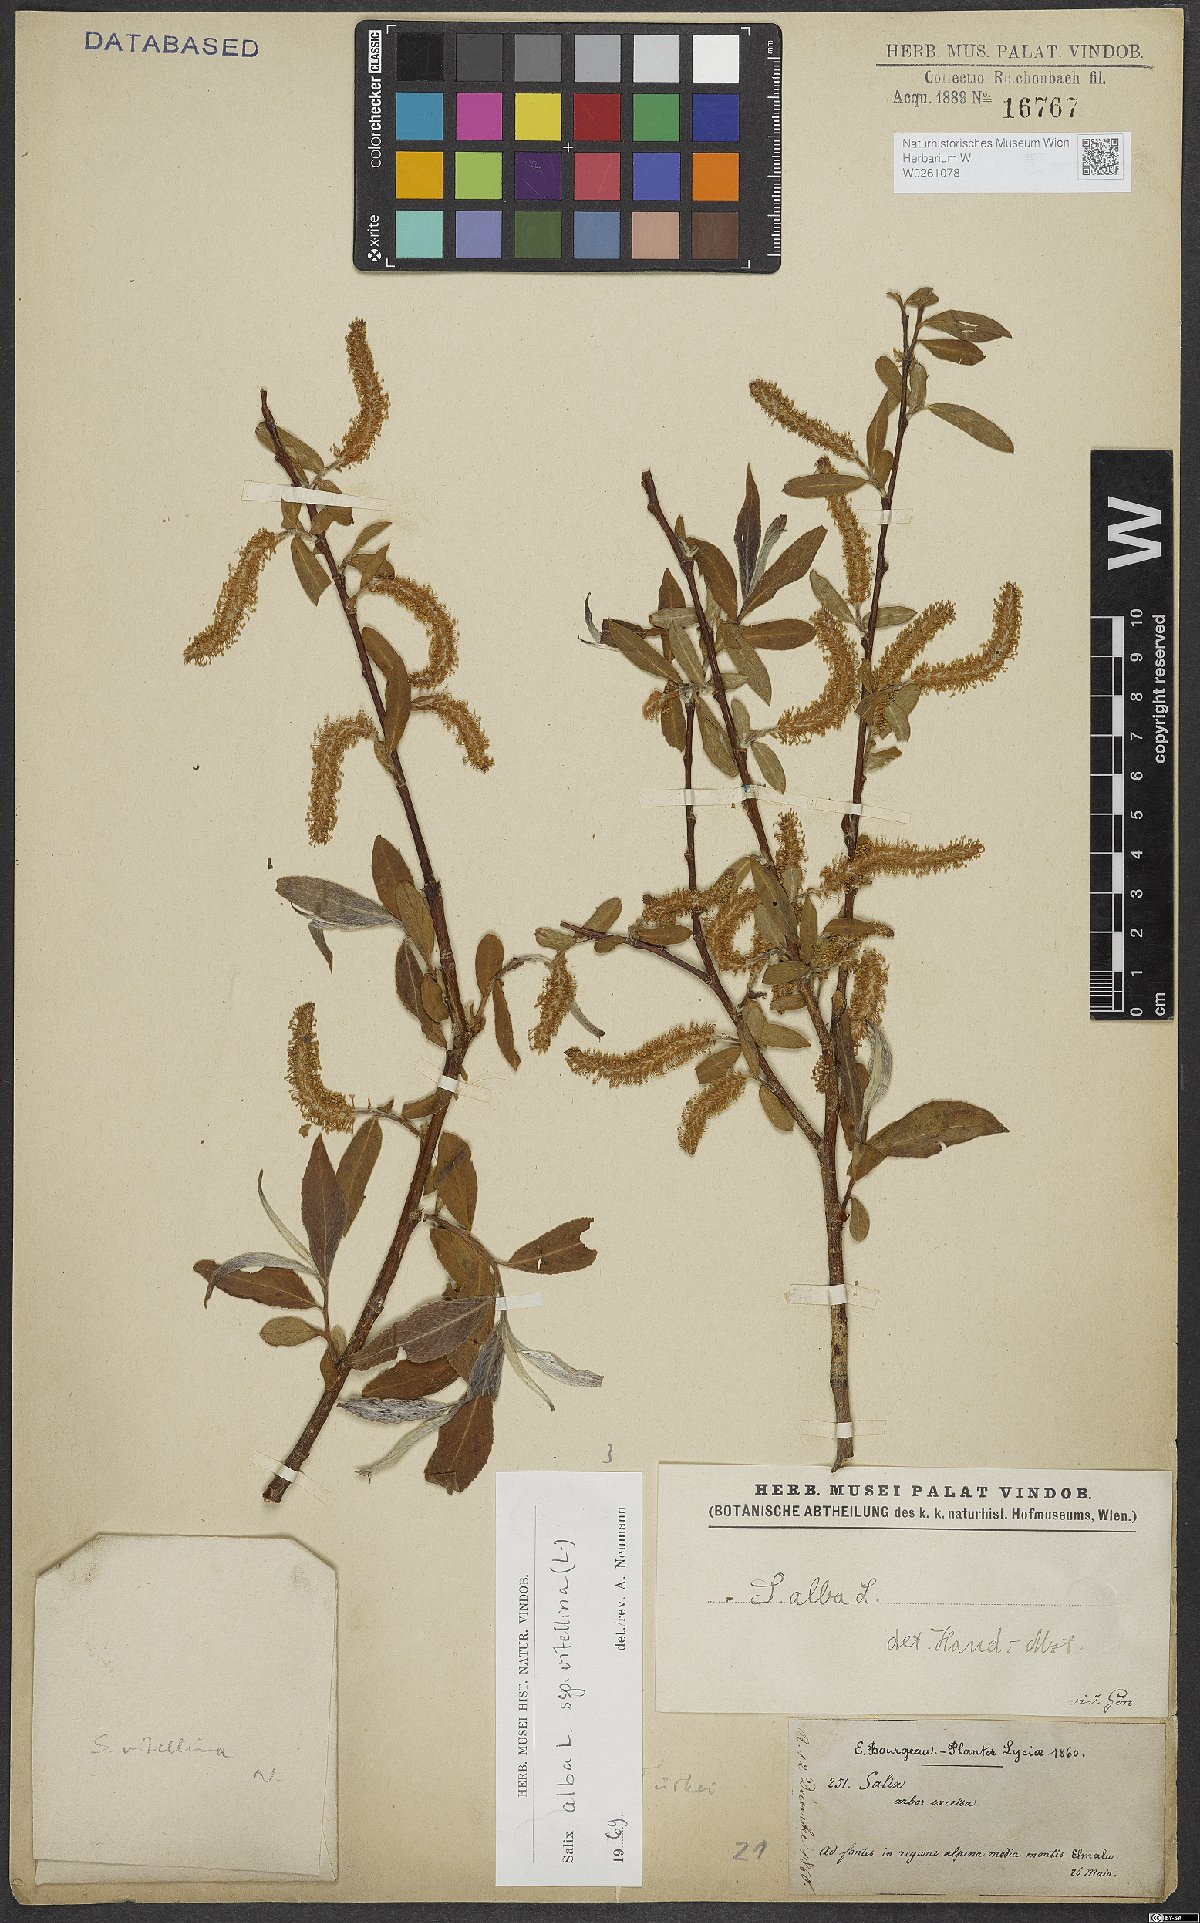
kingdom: Plantae
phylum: Tracheophyta
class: Magnoliopsida
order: Malpighiales
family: Salicaceae
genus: Salix
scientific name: Salix alba
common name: White willow
